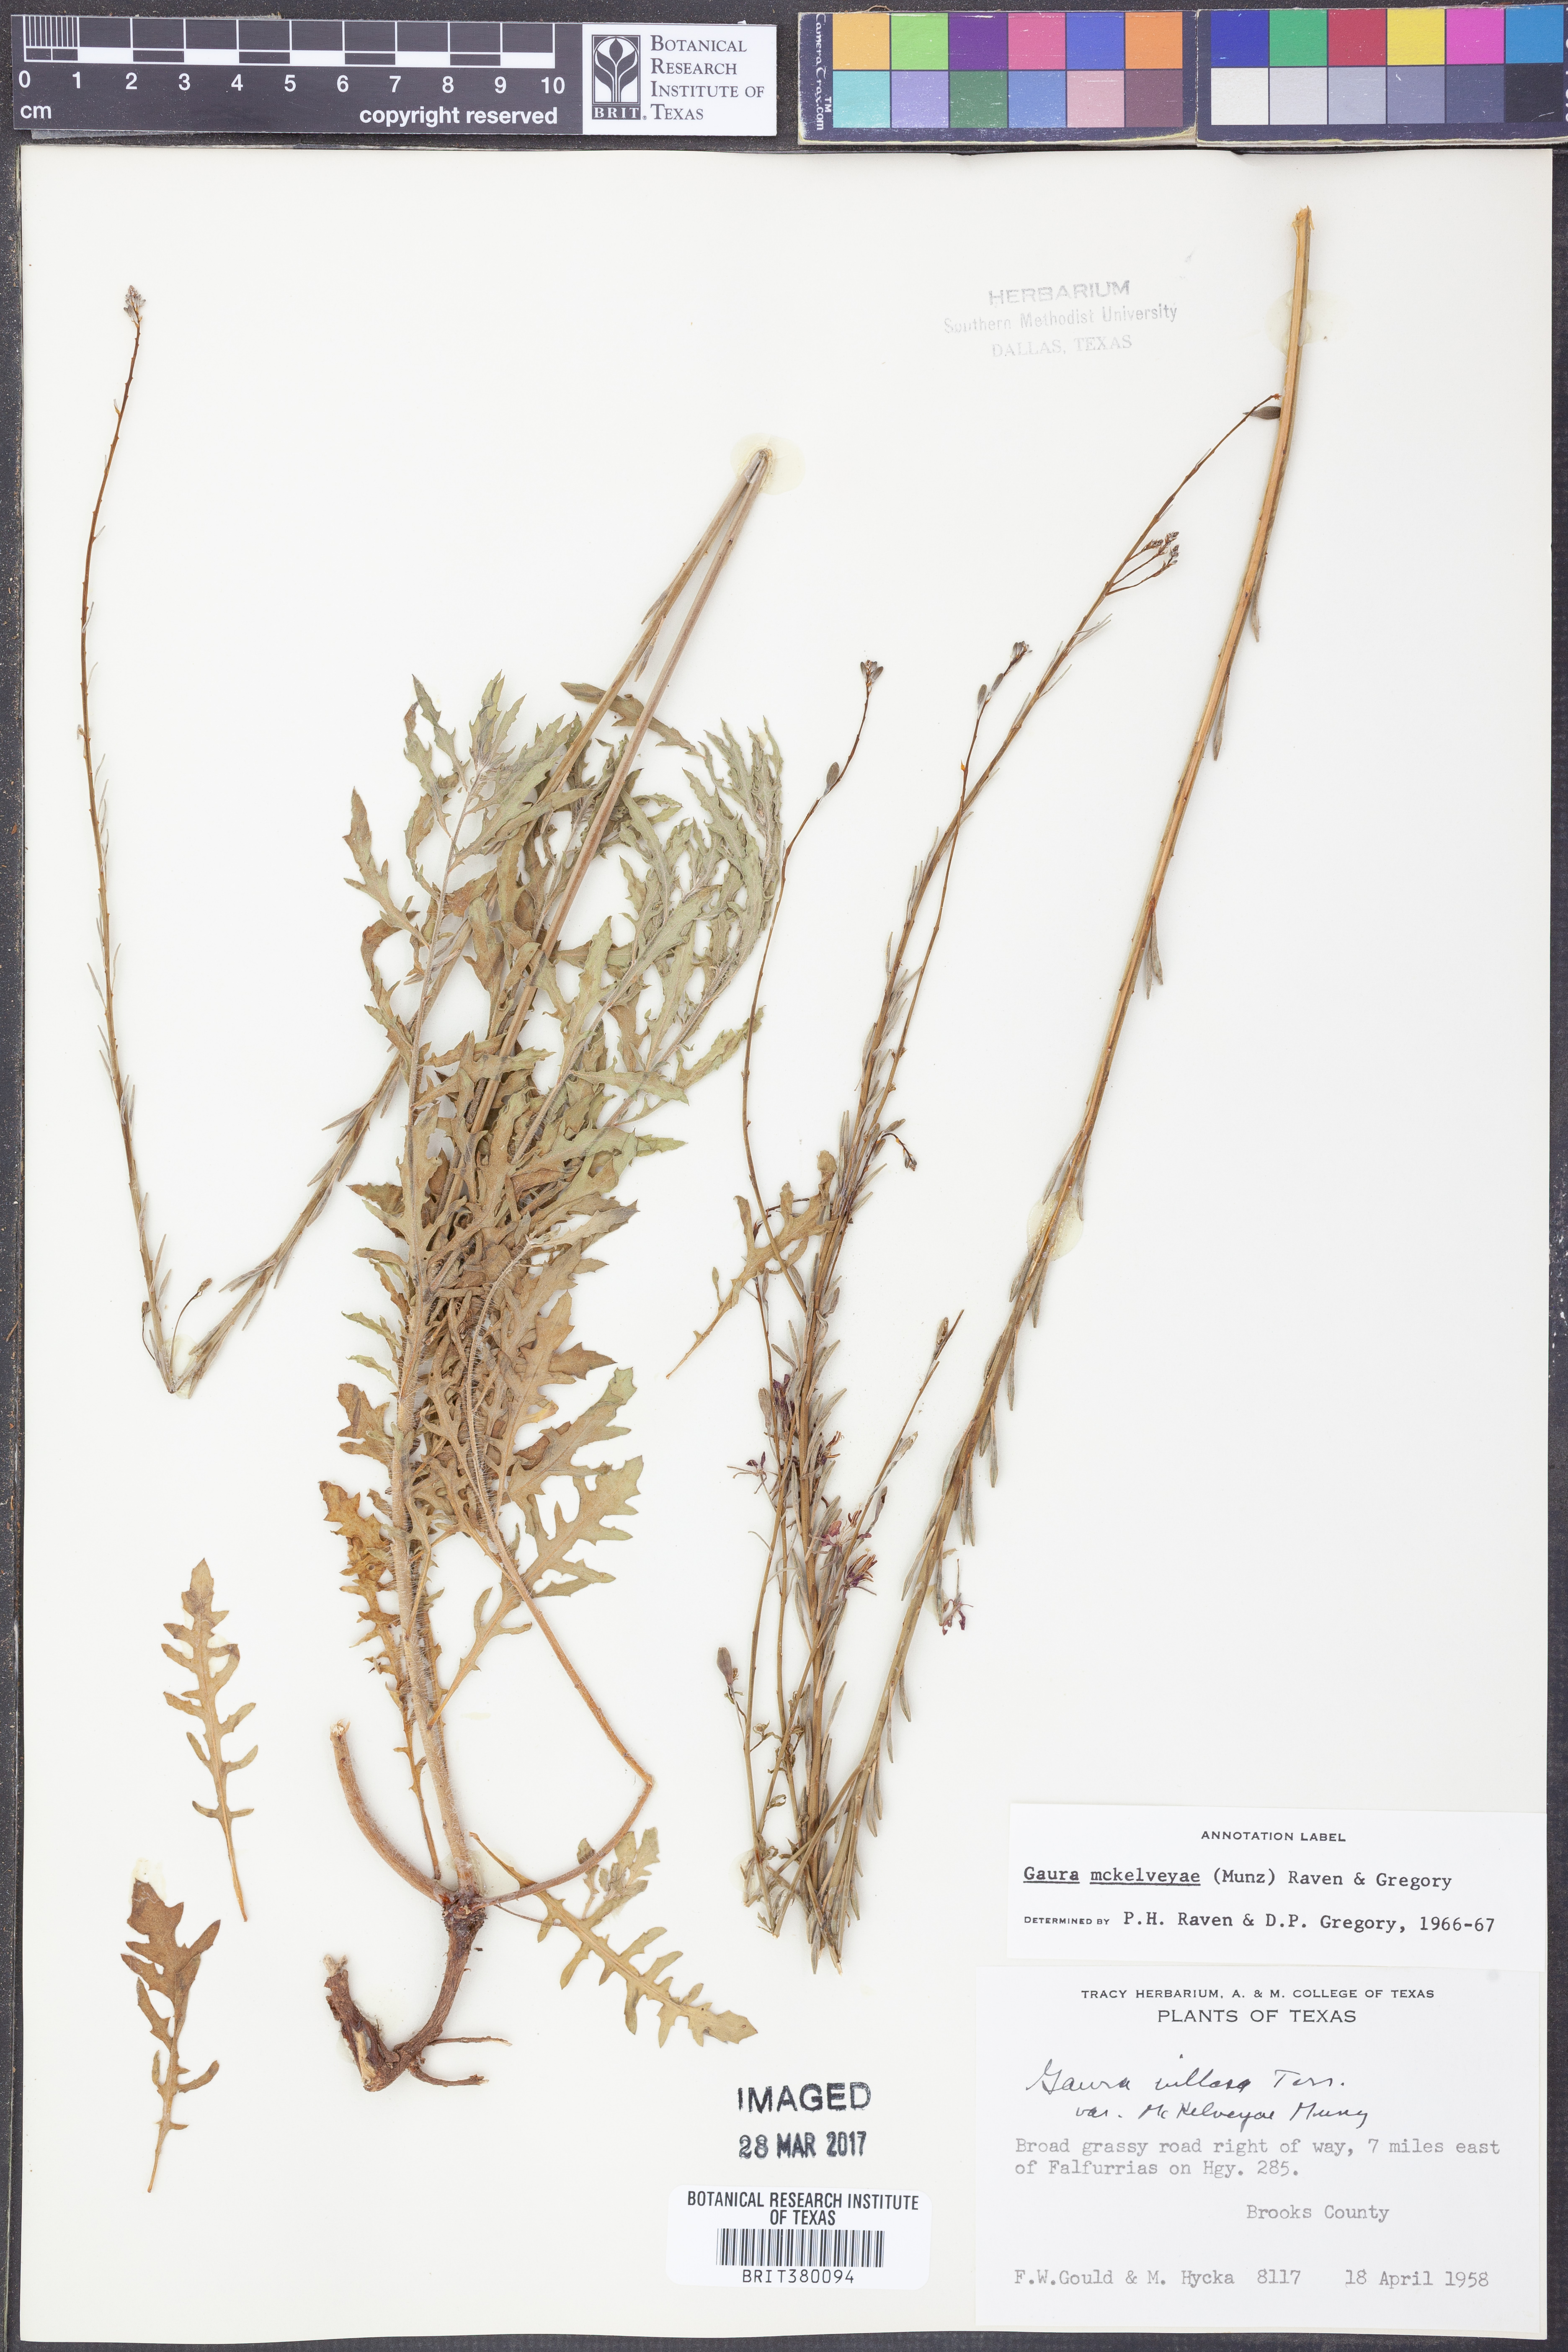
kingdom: Plantae
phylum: Tracheophyta
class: Magnoliopsida
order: Myrtales
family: Onagraceae
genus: Oenothera
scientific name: Oenothera mckelveyae
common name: Mckelvey's beeblossom
